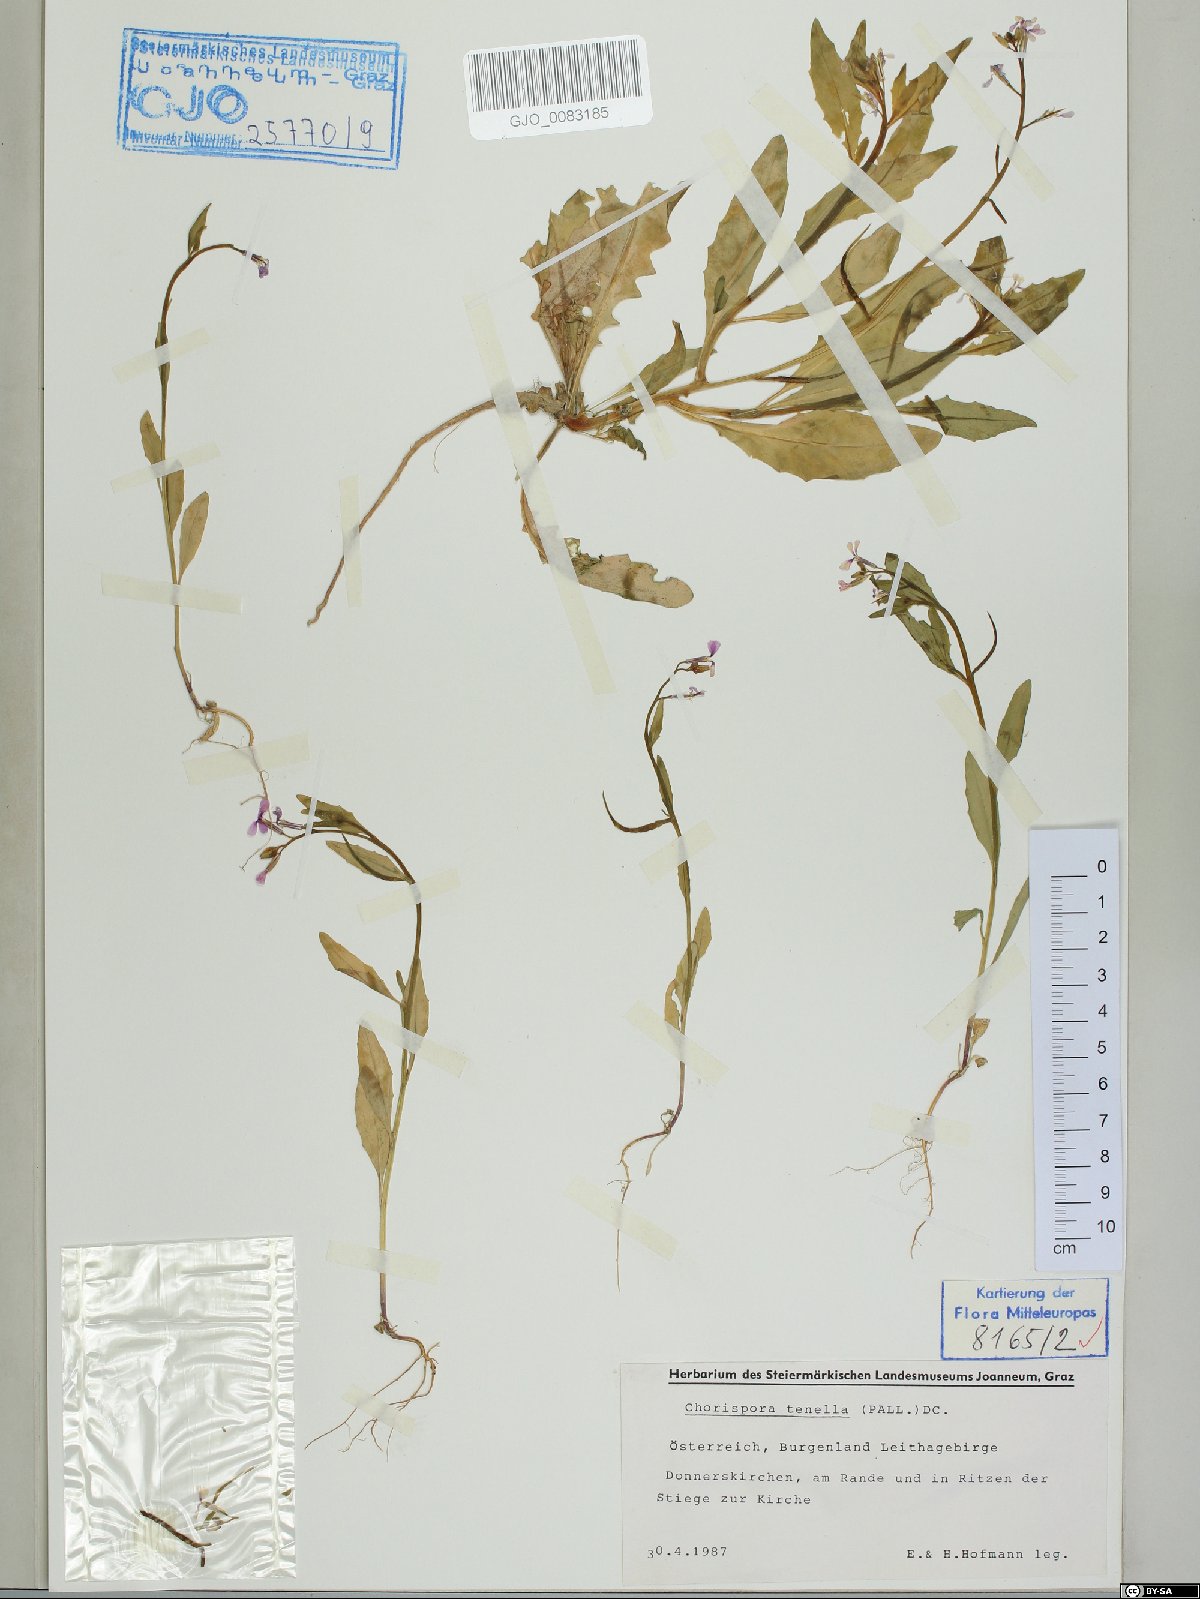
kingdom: Plantae
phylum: Tracheophyta
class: Magnoliopsida
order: Brassicales
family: Brassicaceae
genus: Chorispora
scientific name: Chorispora tenella
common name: Crossflower
